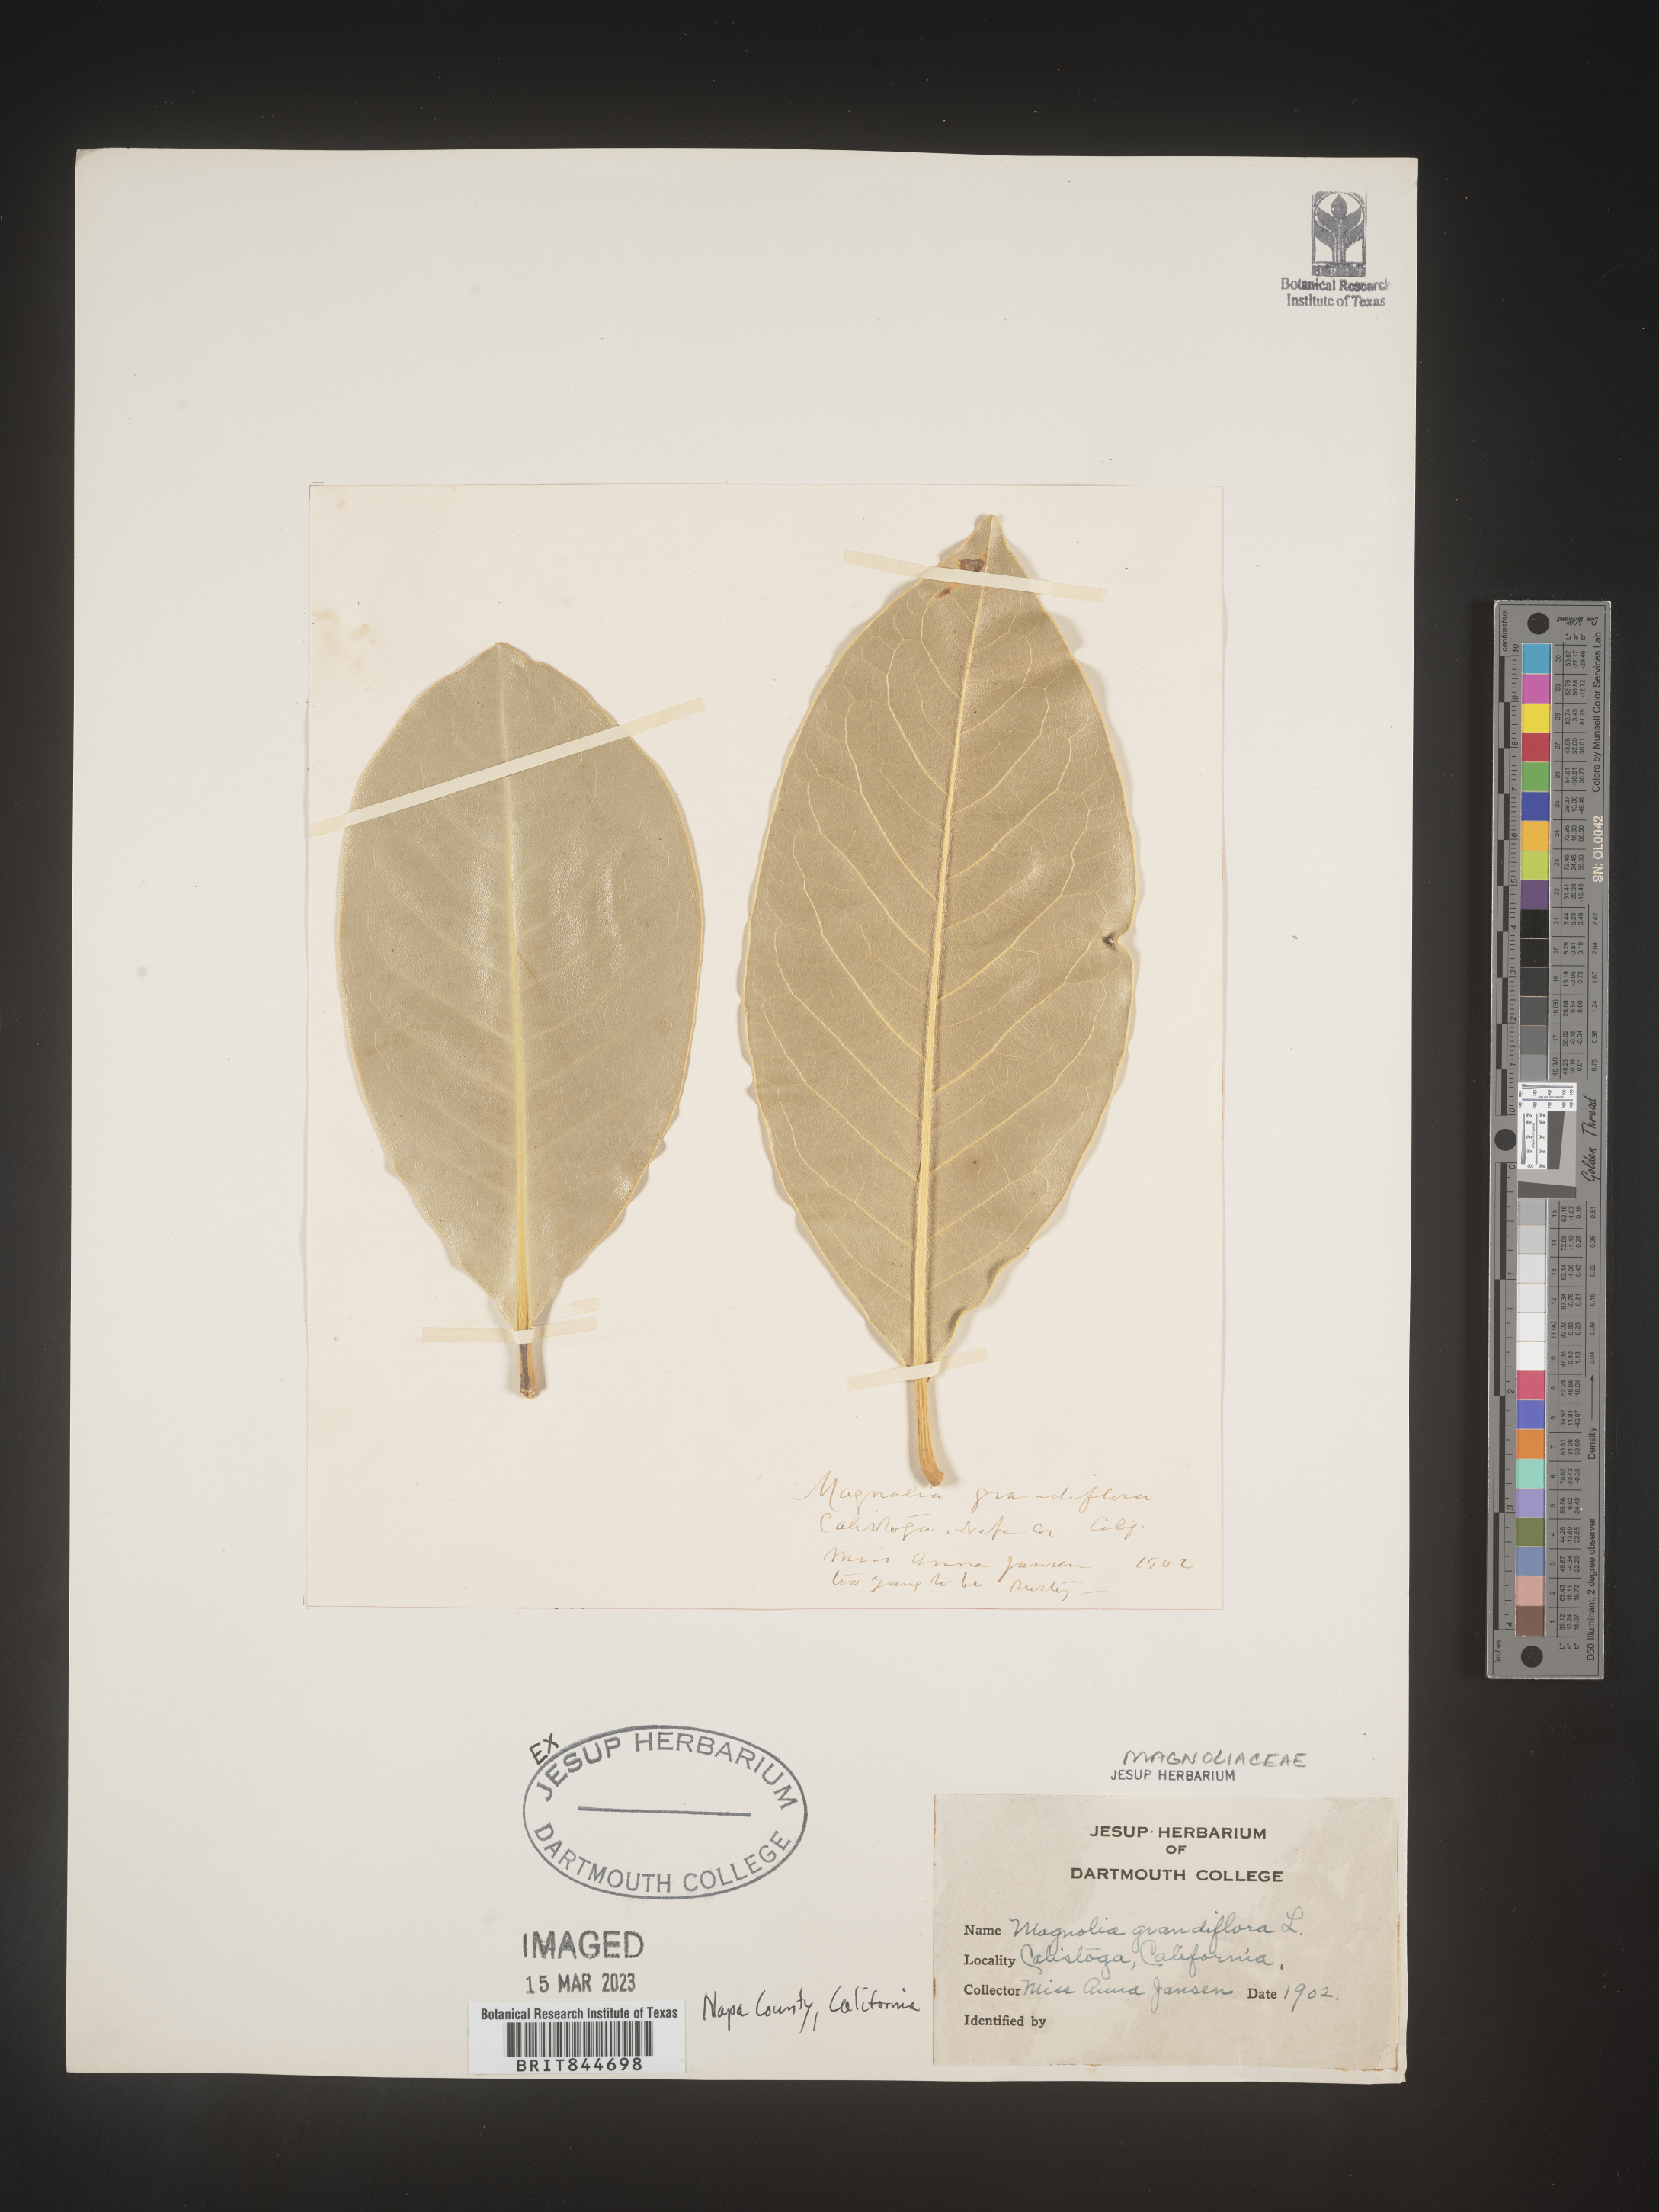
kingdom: Plantae
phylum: Tracheophyta
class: Magnoliopsida
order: Magnoliales
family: Magnoliaceae
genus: Magnolia
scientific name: Magnolia grandiflora
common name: Southern magnolia
